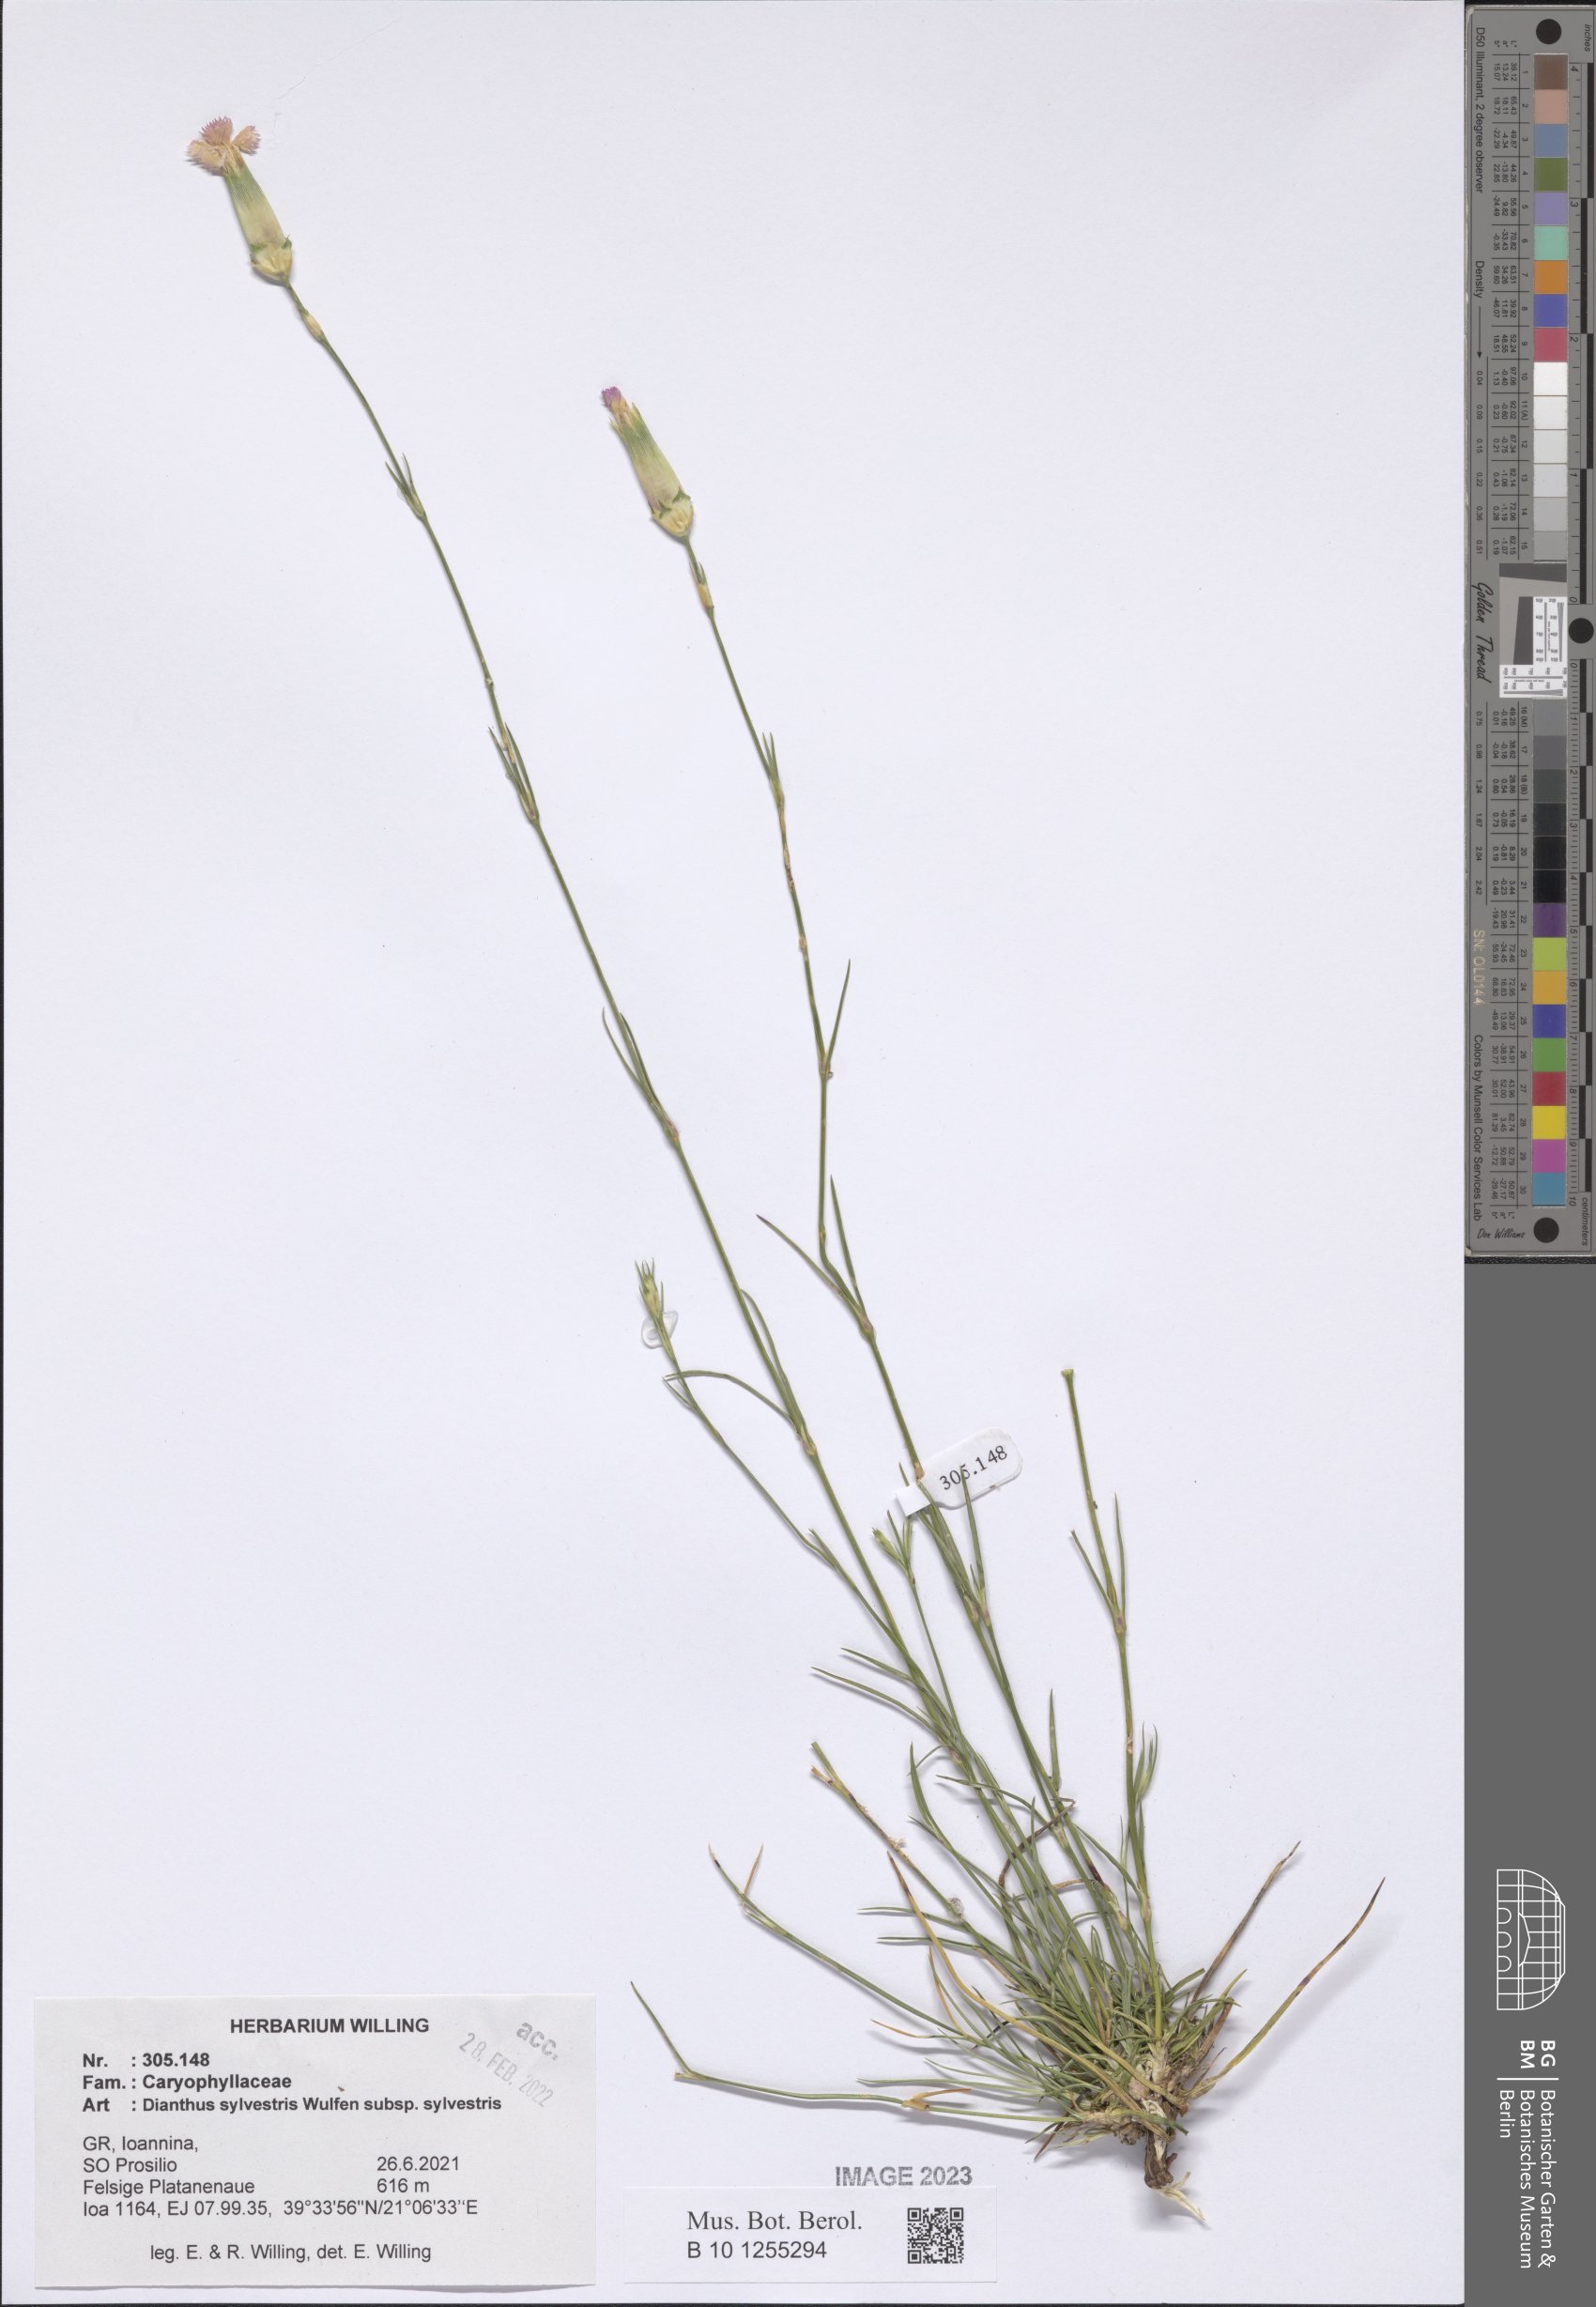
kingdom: Plantae
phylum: Tracheophyta
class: Magnoliopsida
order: Caryophyllales
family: Caryophyllaceae
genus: Dianthus
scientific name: Dianthus sylvestris
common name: Wood pink
